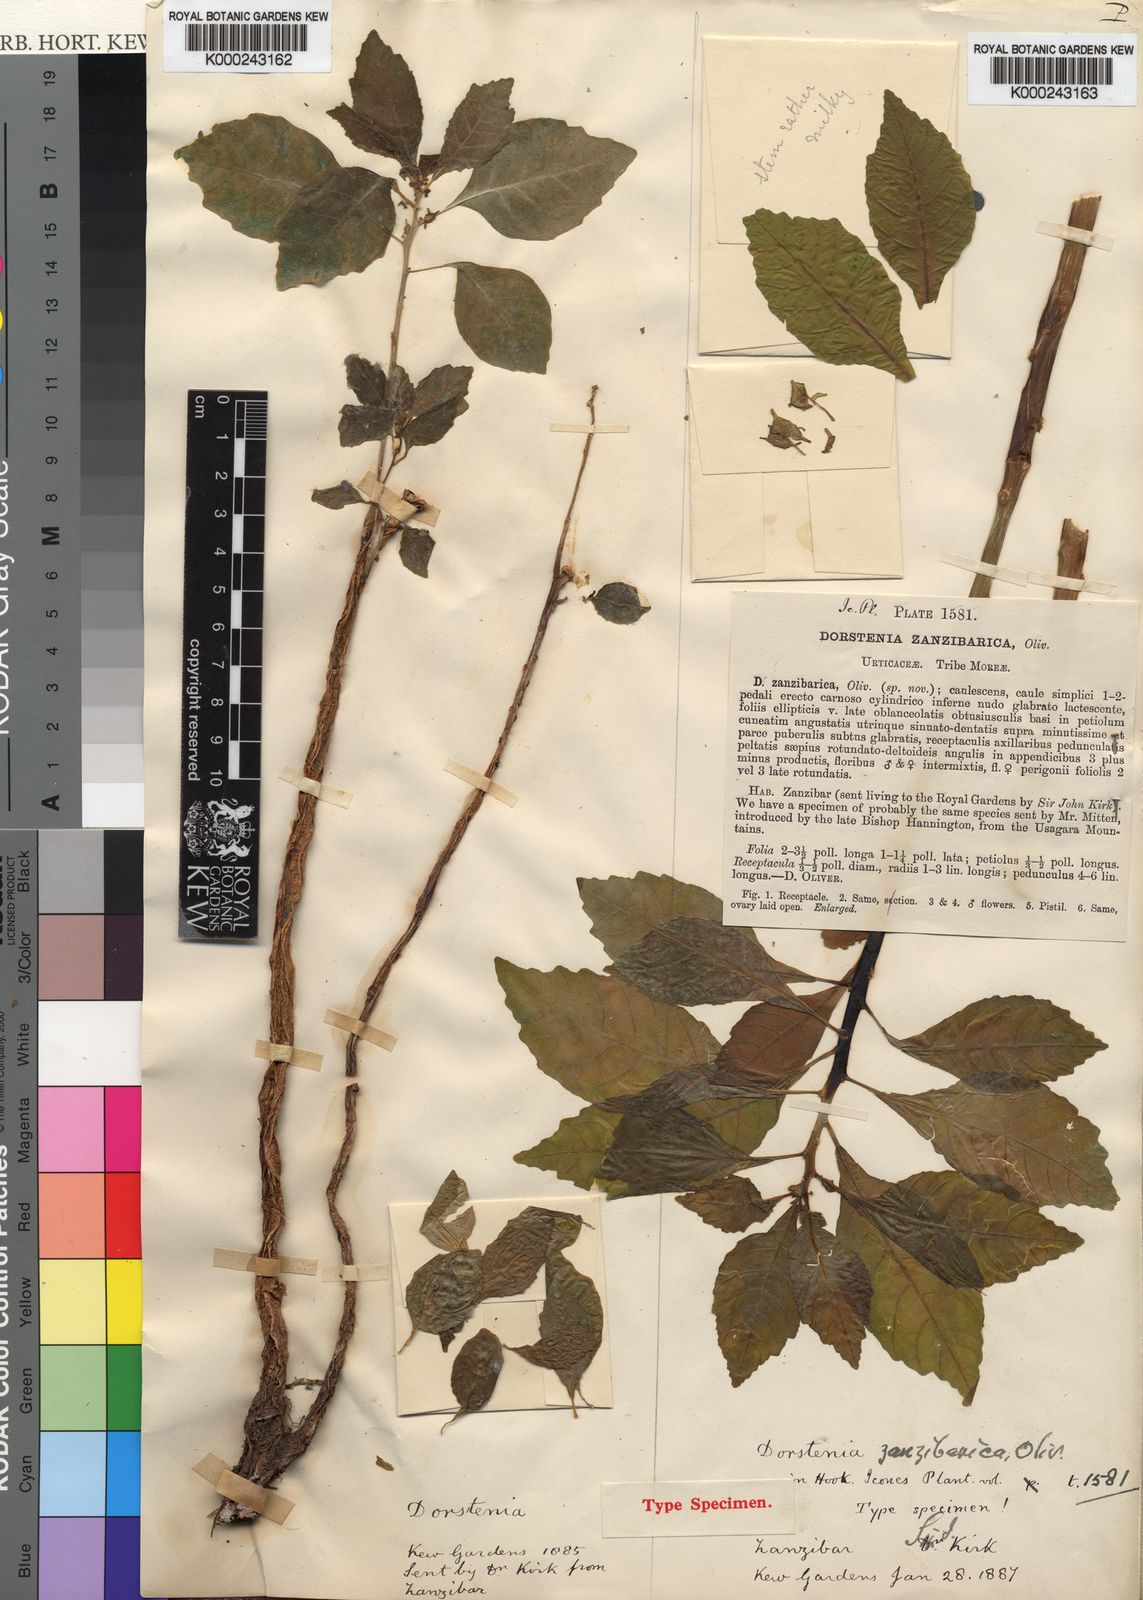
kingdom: Plantae
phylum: Tracheophyta
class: Magnoliopsida
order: Rosales
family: Moraceae
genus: Dorstenia
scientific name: Dorstenia zanzibarica
